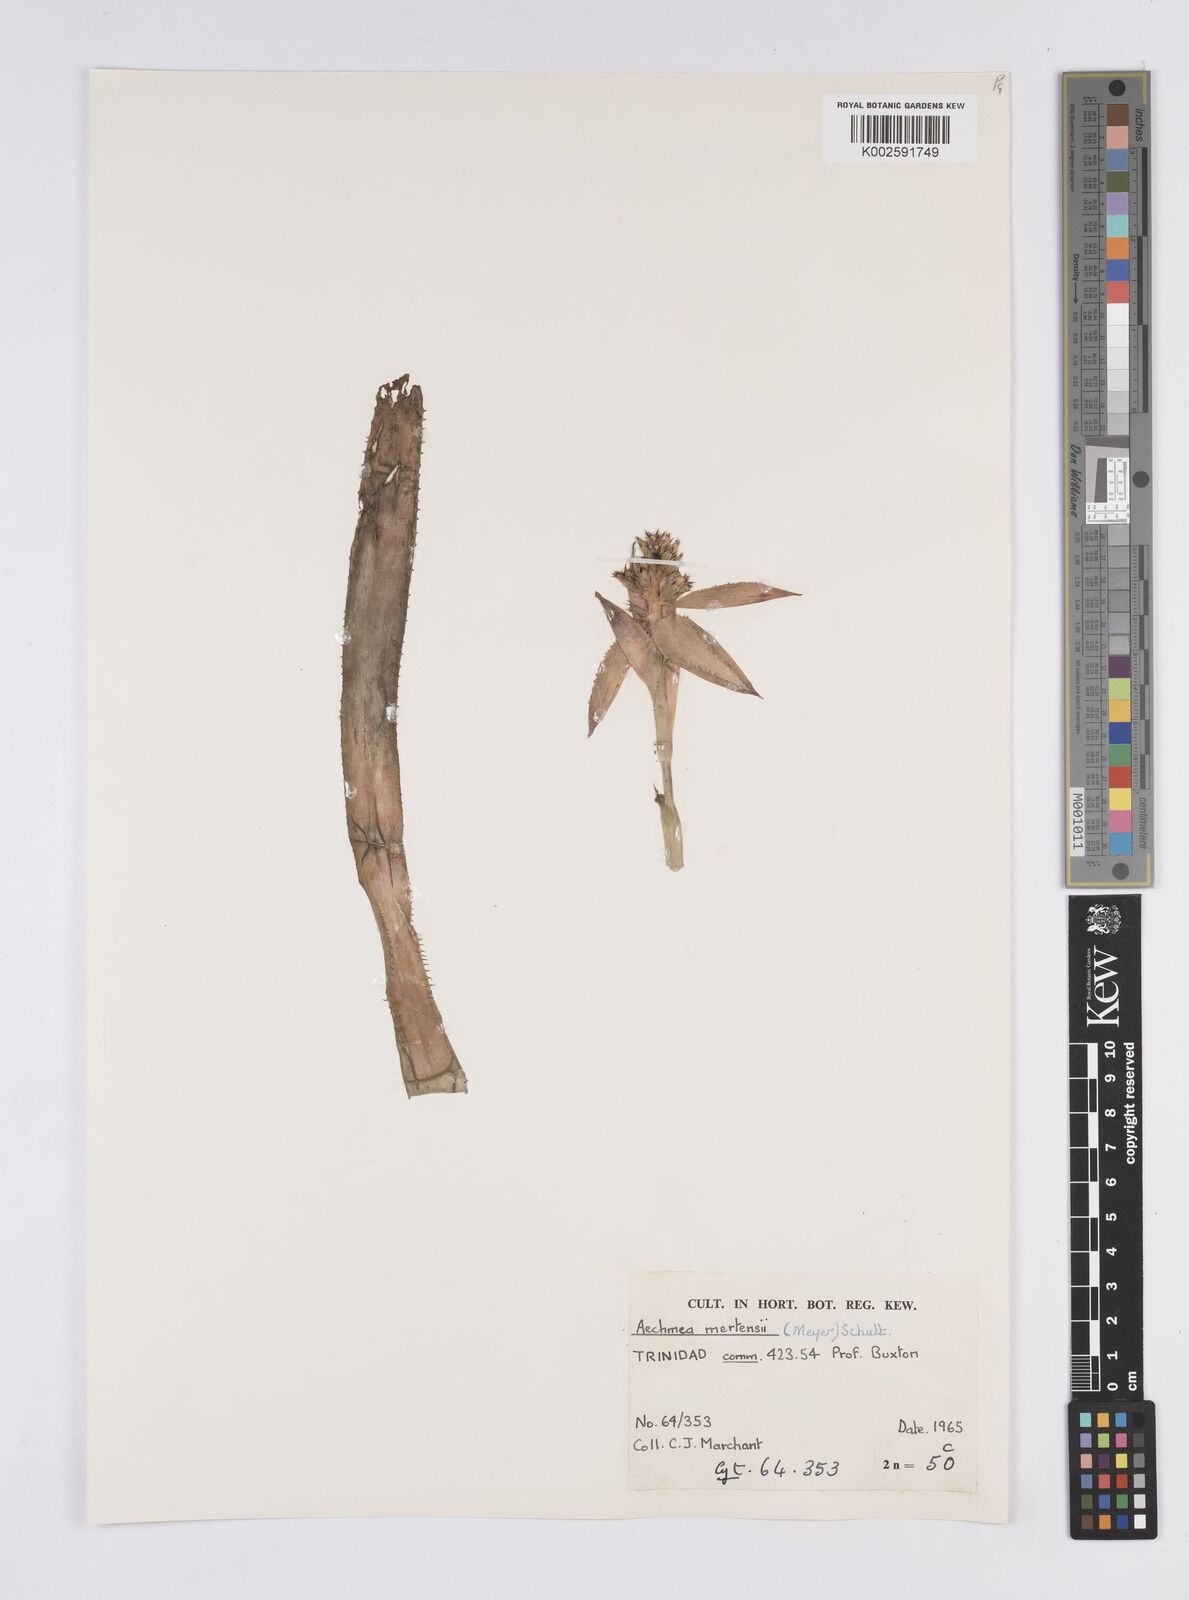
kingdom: Plantae
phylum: Tracheophyta
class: Liliopsida
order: Poales
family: Bromeliaceae
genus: Aechmea
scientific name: Aechmea mertensii
